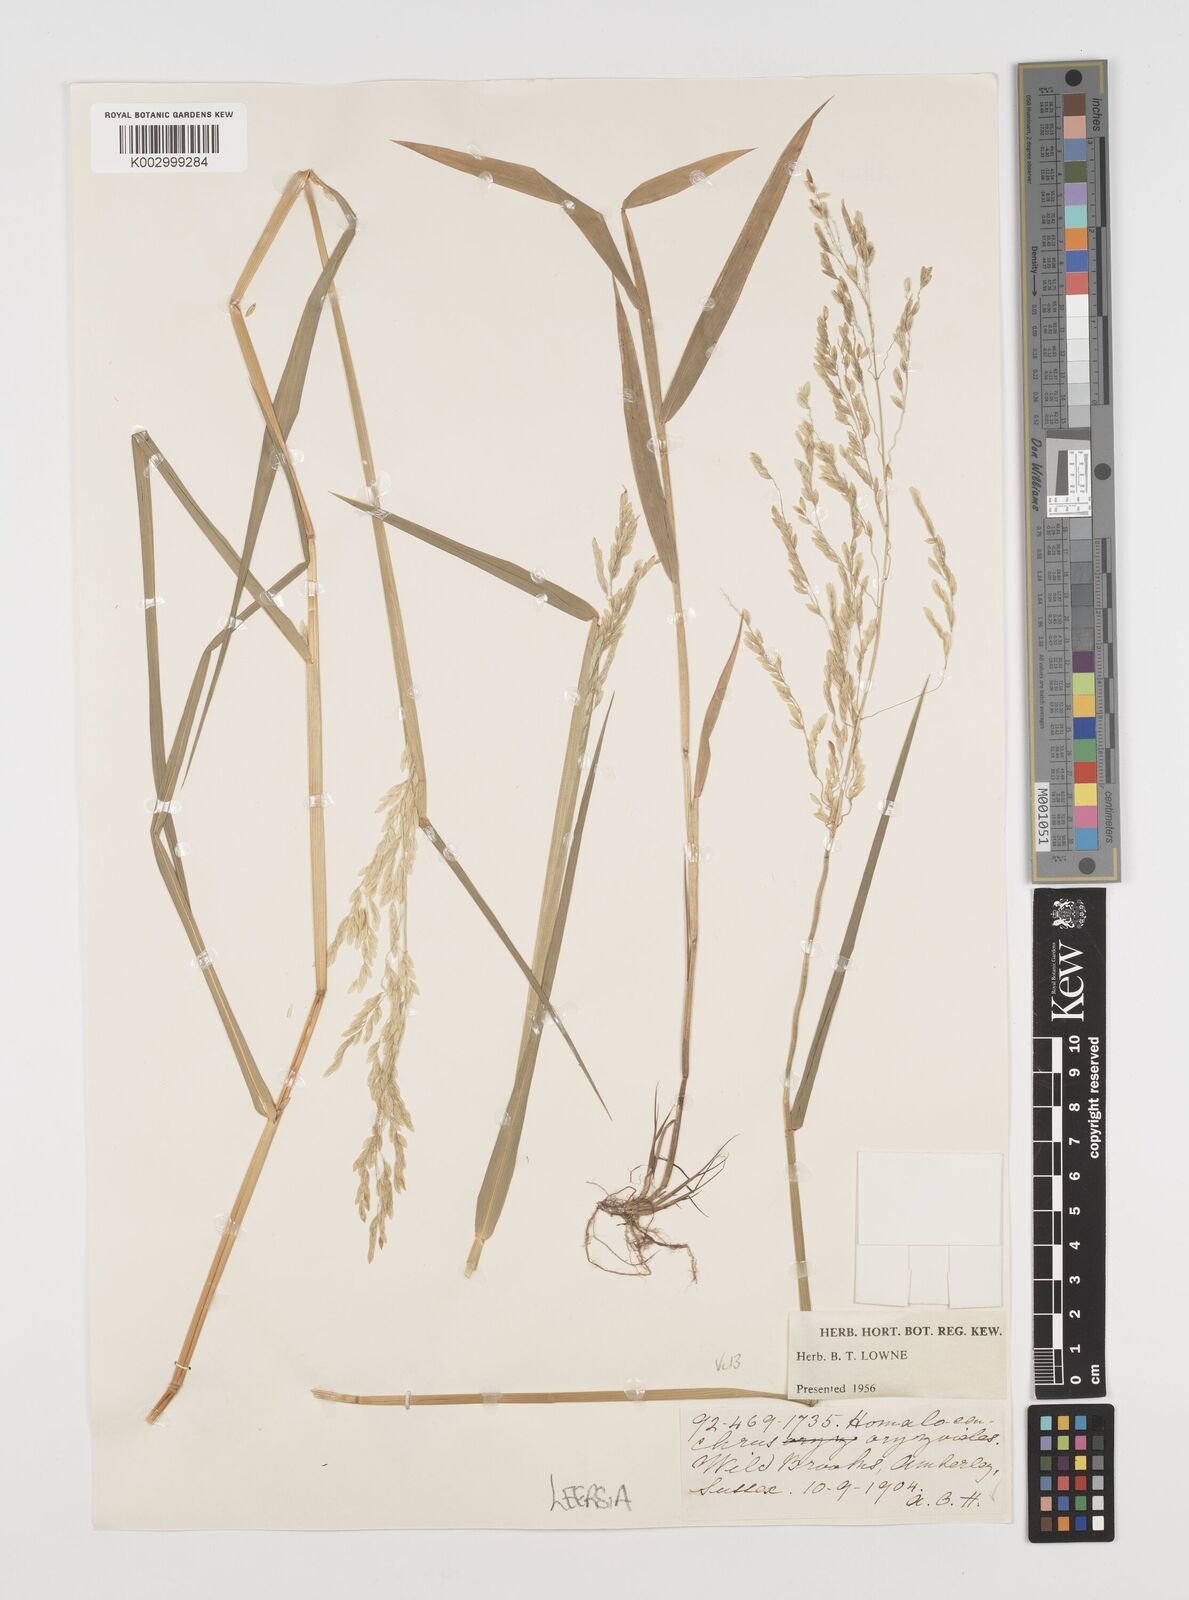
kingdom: Plantae
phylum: Tracheophyta
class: Liliopsida
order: Poales
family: Poaceae
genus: Leersia
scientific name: Leersia oryzoides
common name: Cut-grass
